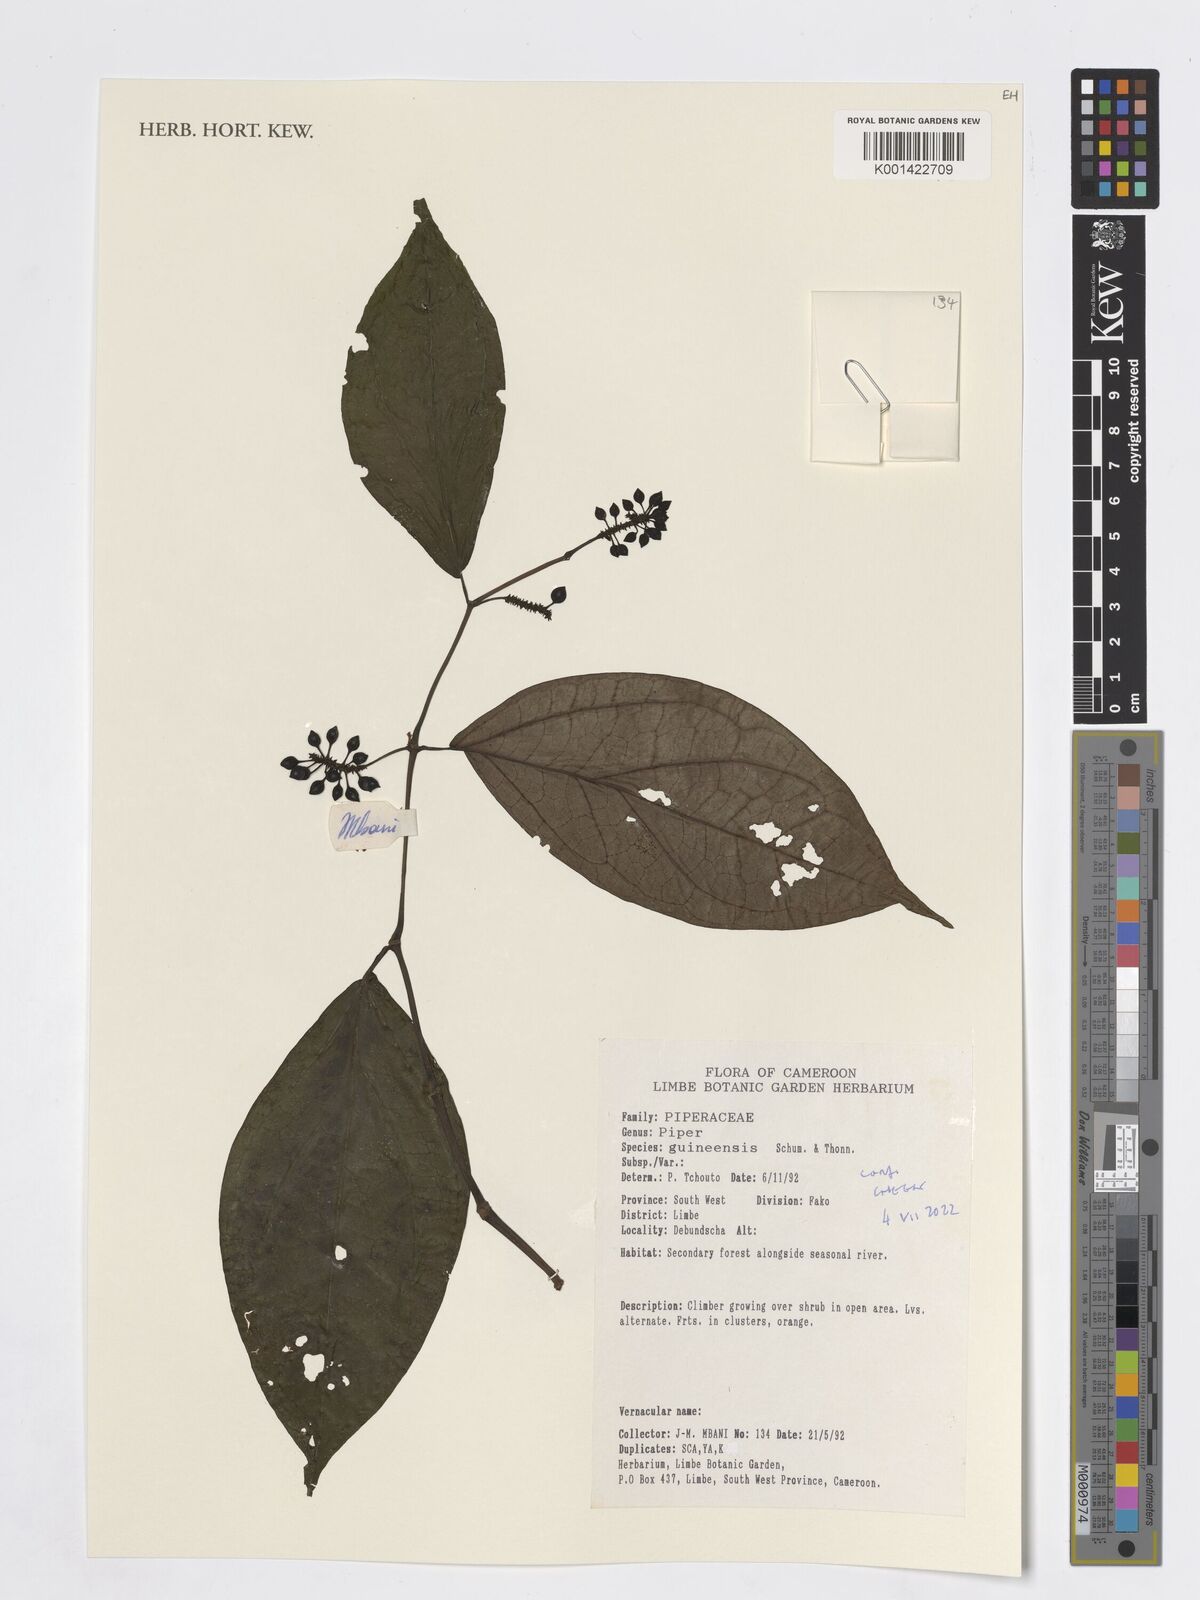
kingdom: Plantae
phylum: Tracheophyta
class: Magnoliopsida
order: Piperales
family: Piperaceae
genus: Piper
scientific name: Piper guineense
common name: Benin pepper
